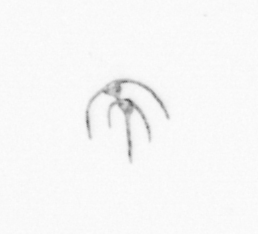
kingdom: Chromista
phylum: Myzozoa
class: Dinophyceae
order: Gonyaulacales
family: Ceratiaceae
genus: Ceratium
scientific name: Ceratium
